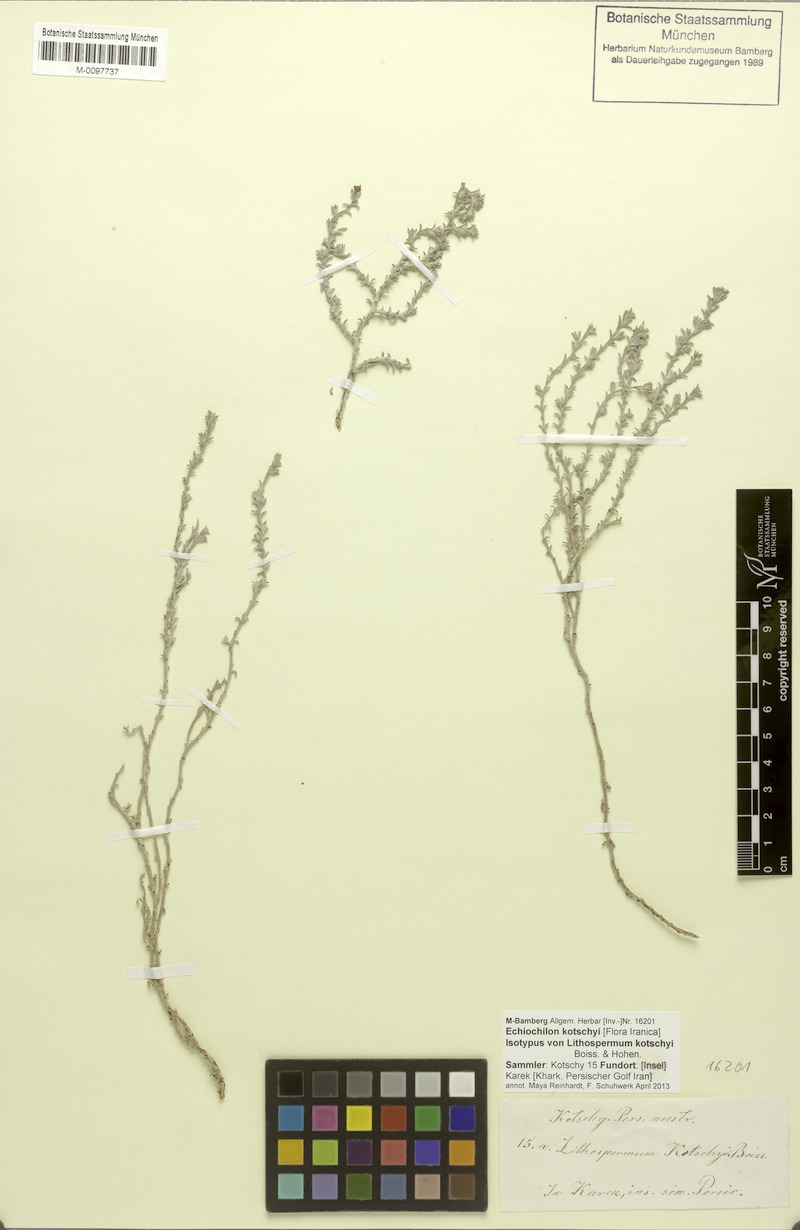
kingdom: Plantae
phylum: Tracheophyta
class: Magnoliopsida
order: Boraginales
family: Boraginaceae
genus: Echiochilon
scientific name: Echiochilon kotschyi
